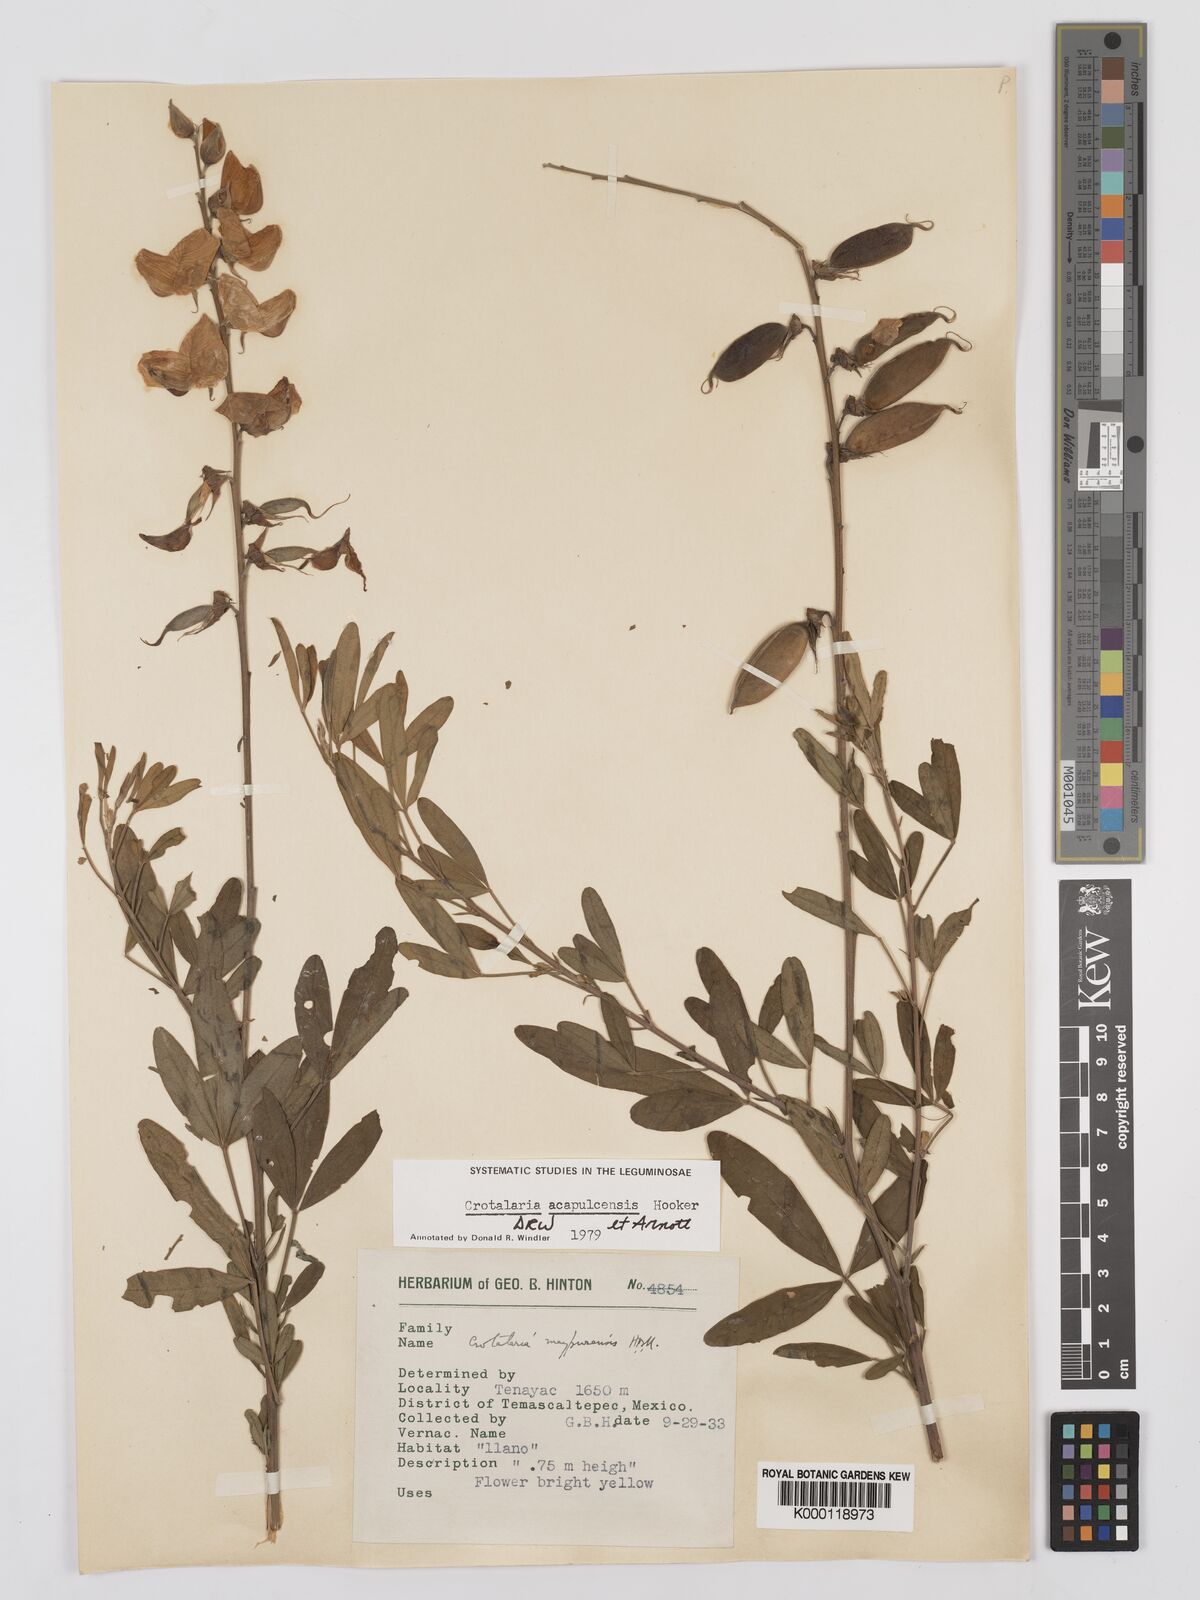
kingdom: Plantae
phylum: Tracheophyta
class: Magnoliopsida
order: Fabales
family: Fabaceae
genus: Crotalaria
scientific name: Crotalaria maypurensis
